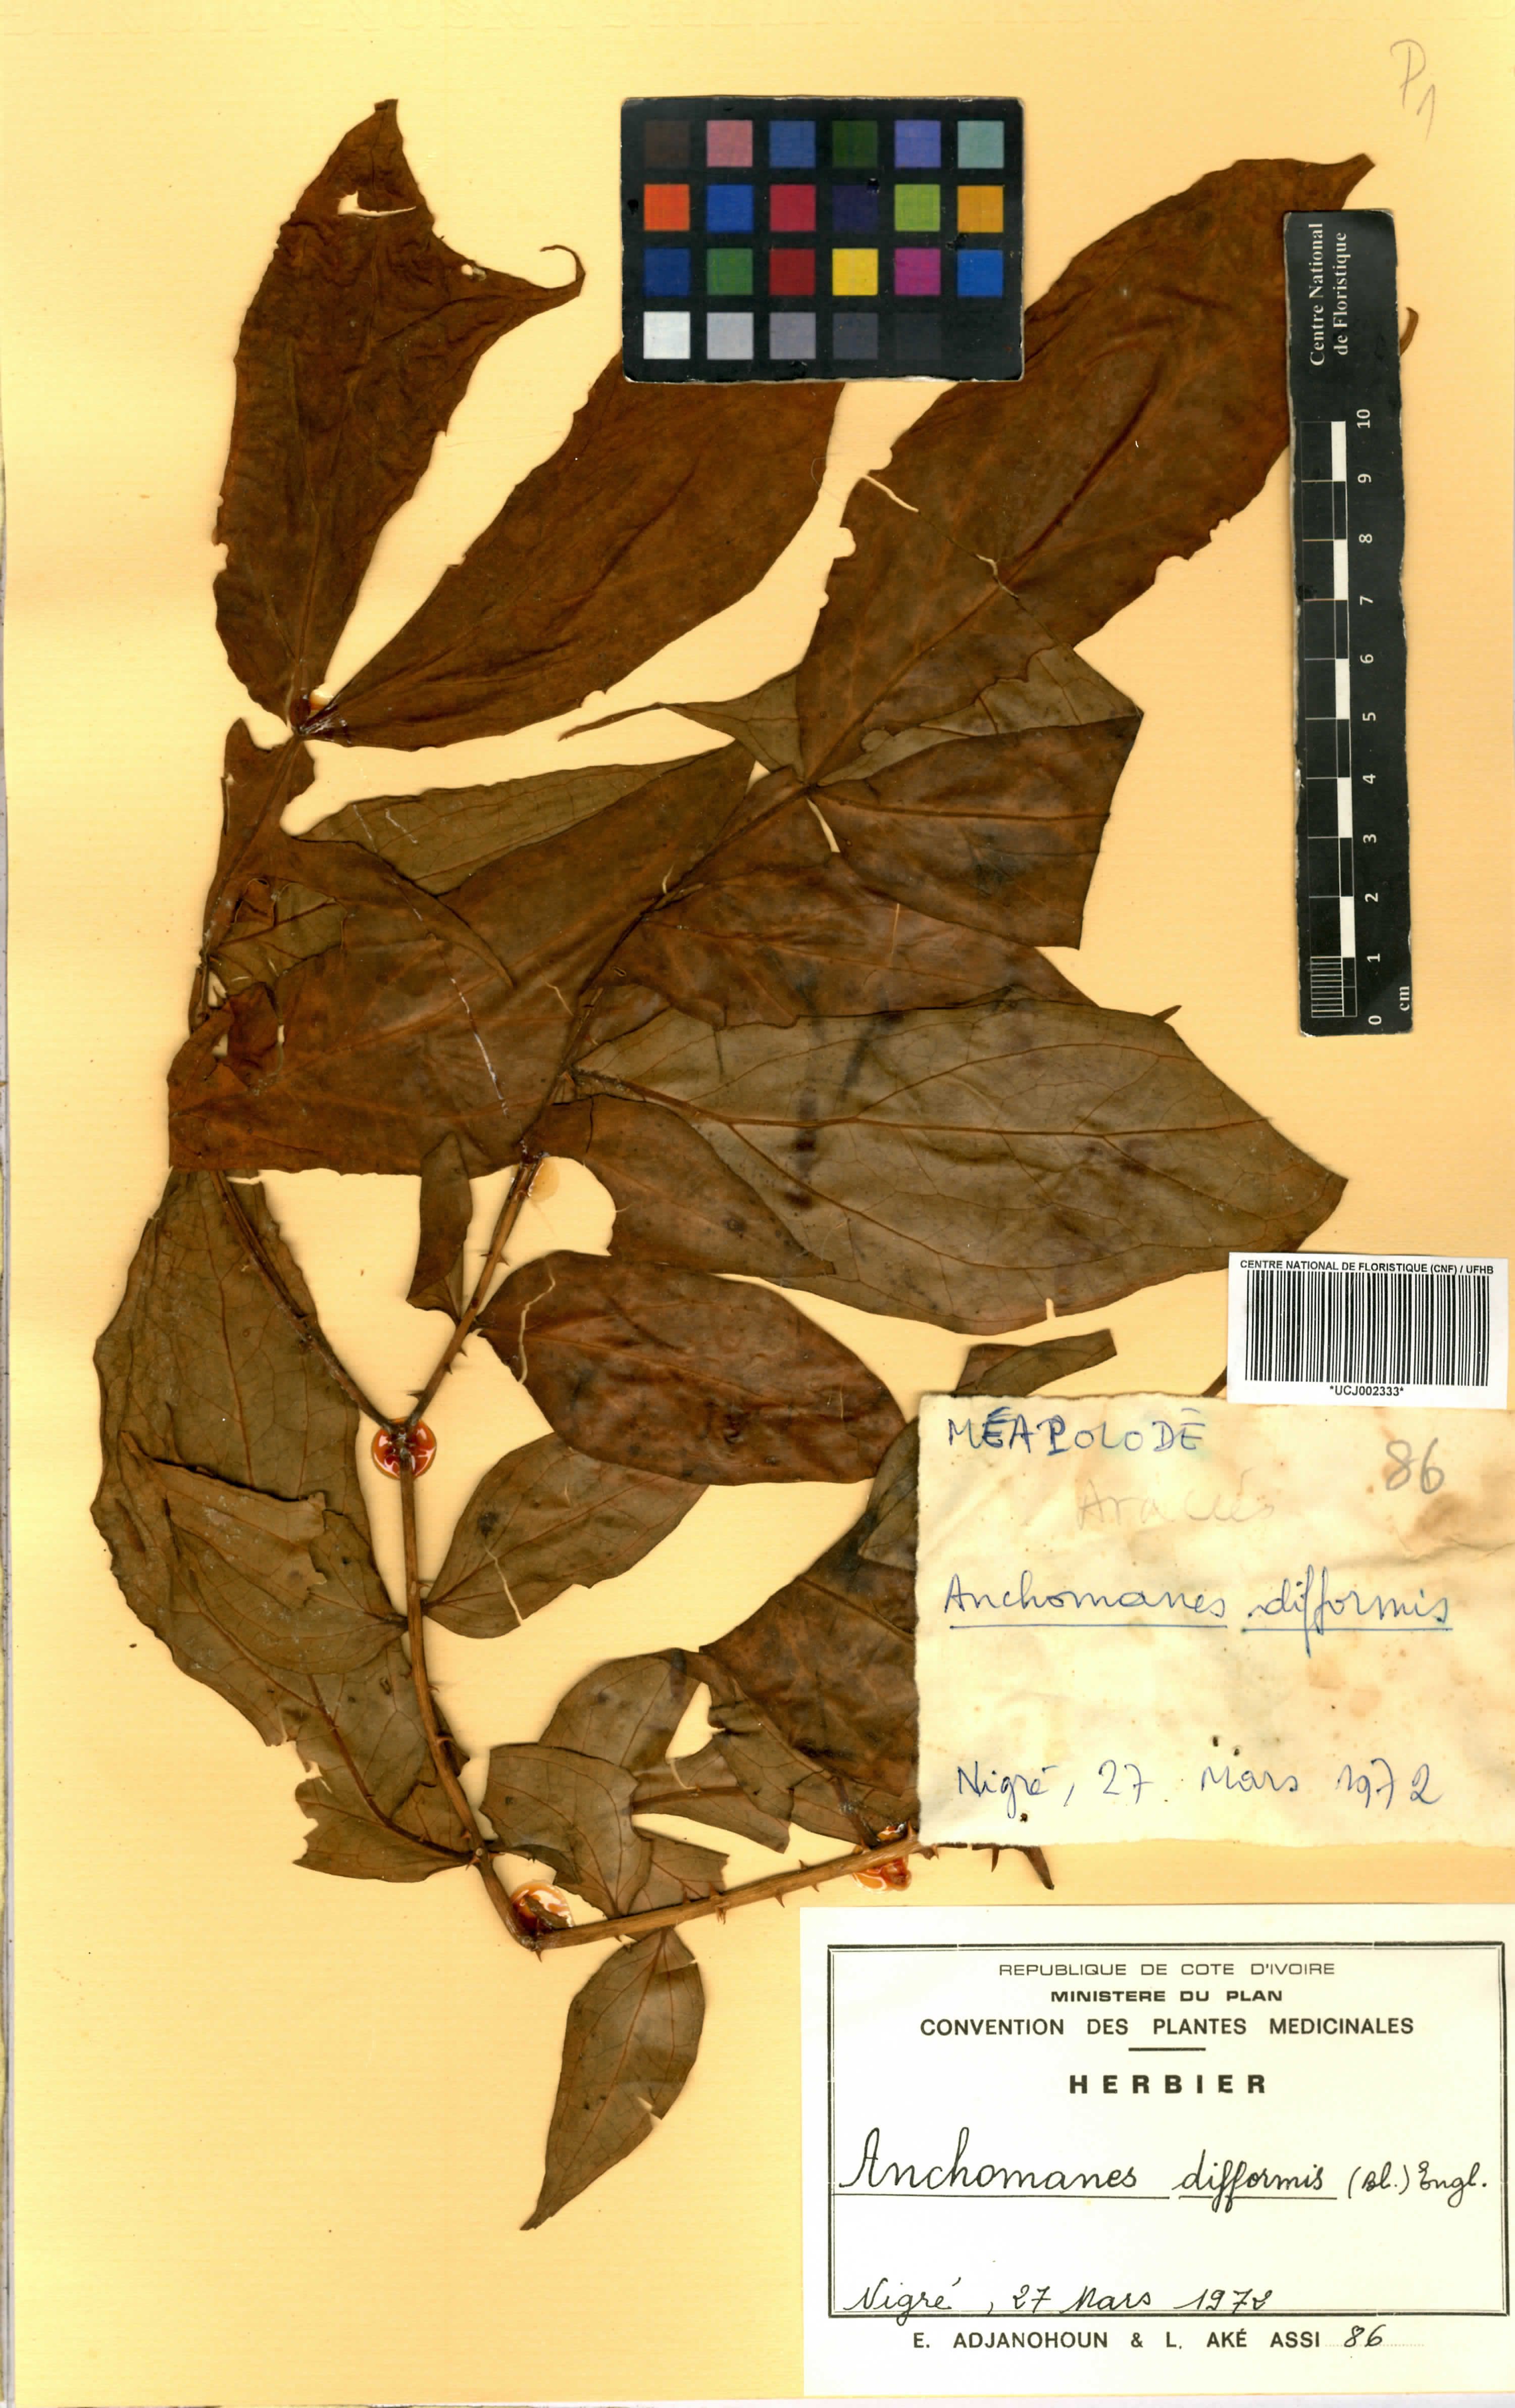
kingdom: Plantae
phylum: Tracheophyta
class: Liliopsida
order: Alismatales
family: Araceae
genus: Anchomanes
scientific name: Anchomanes difformis
